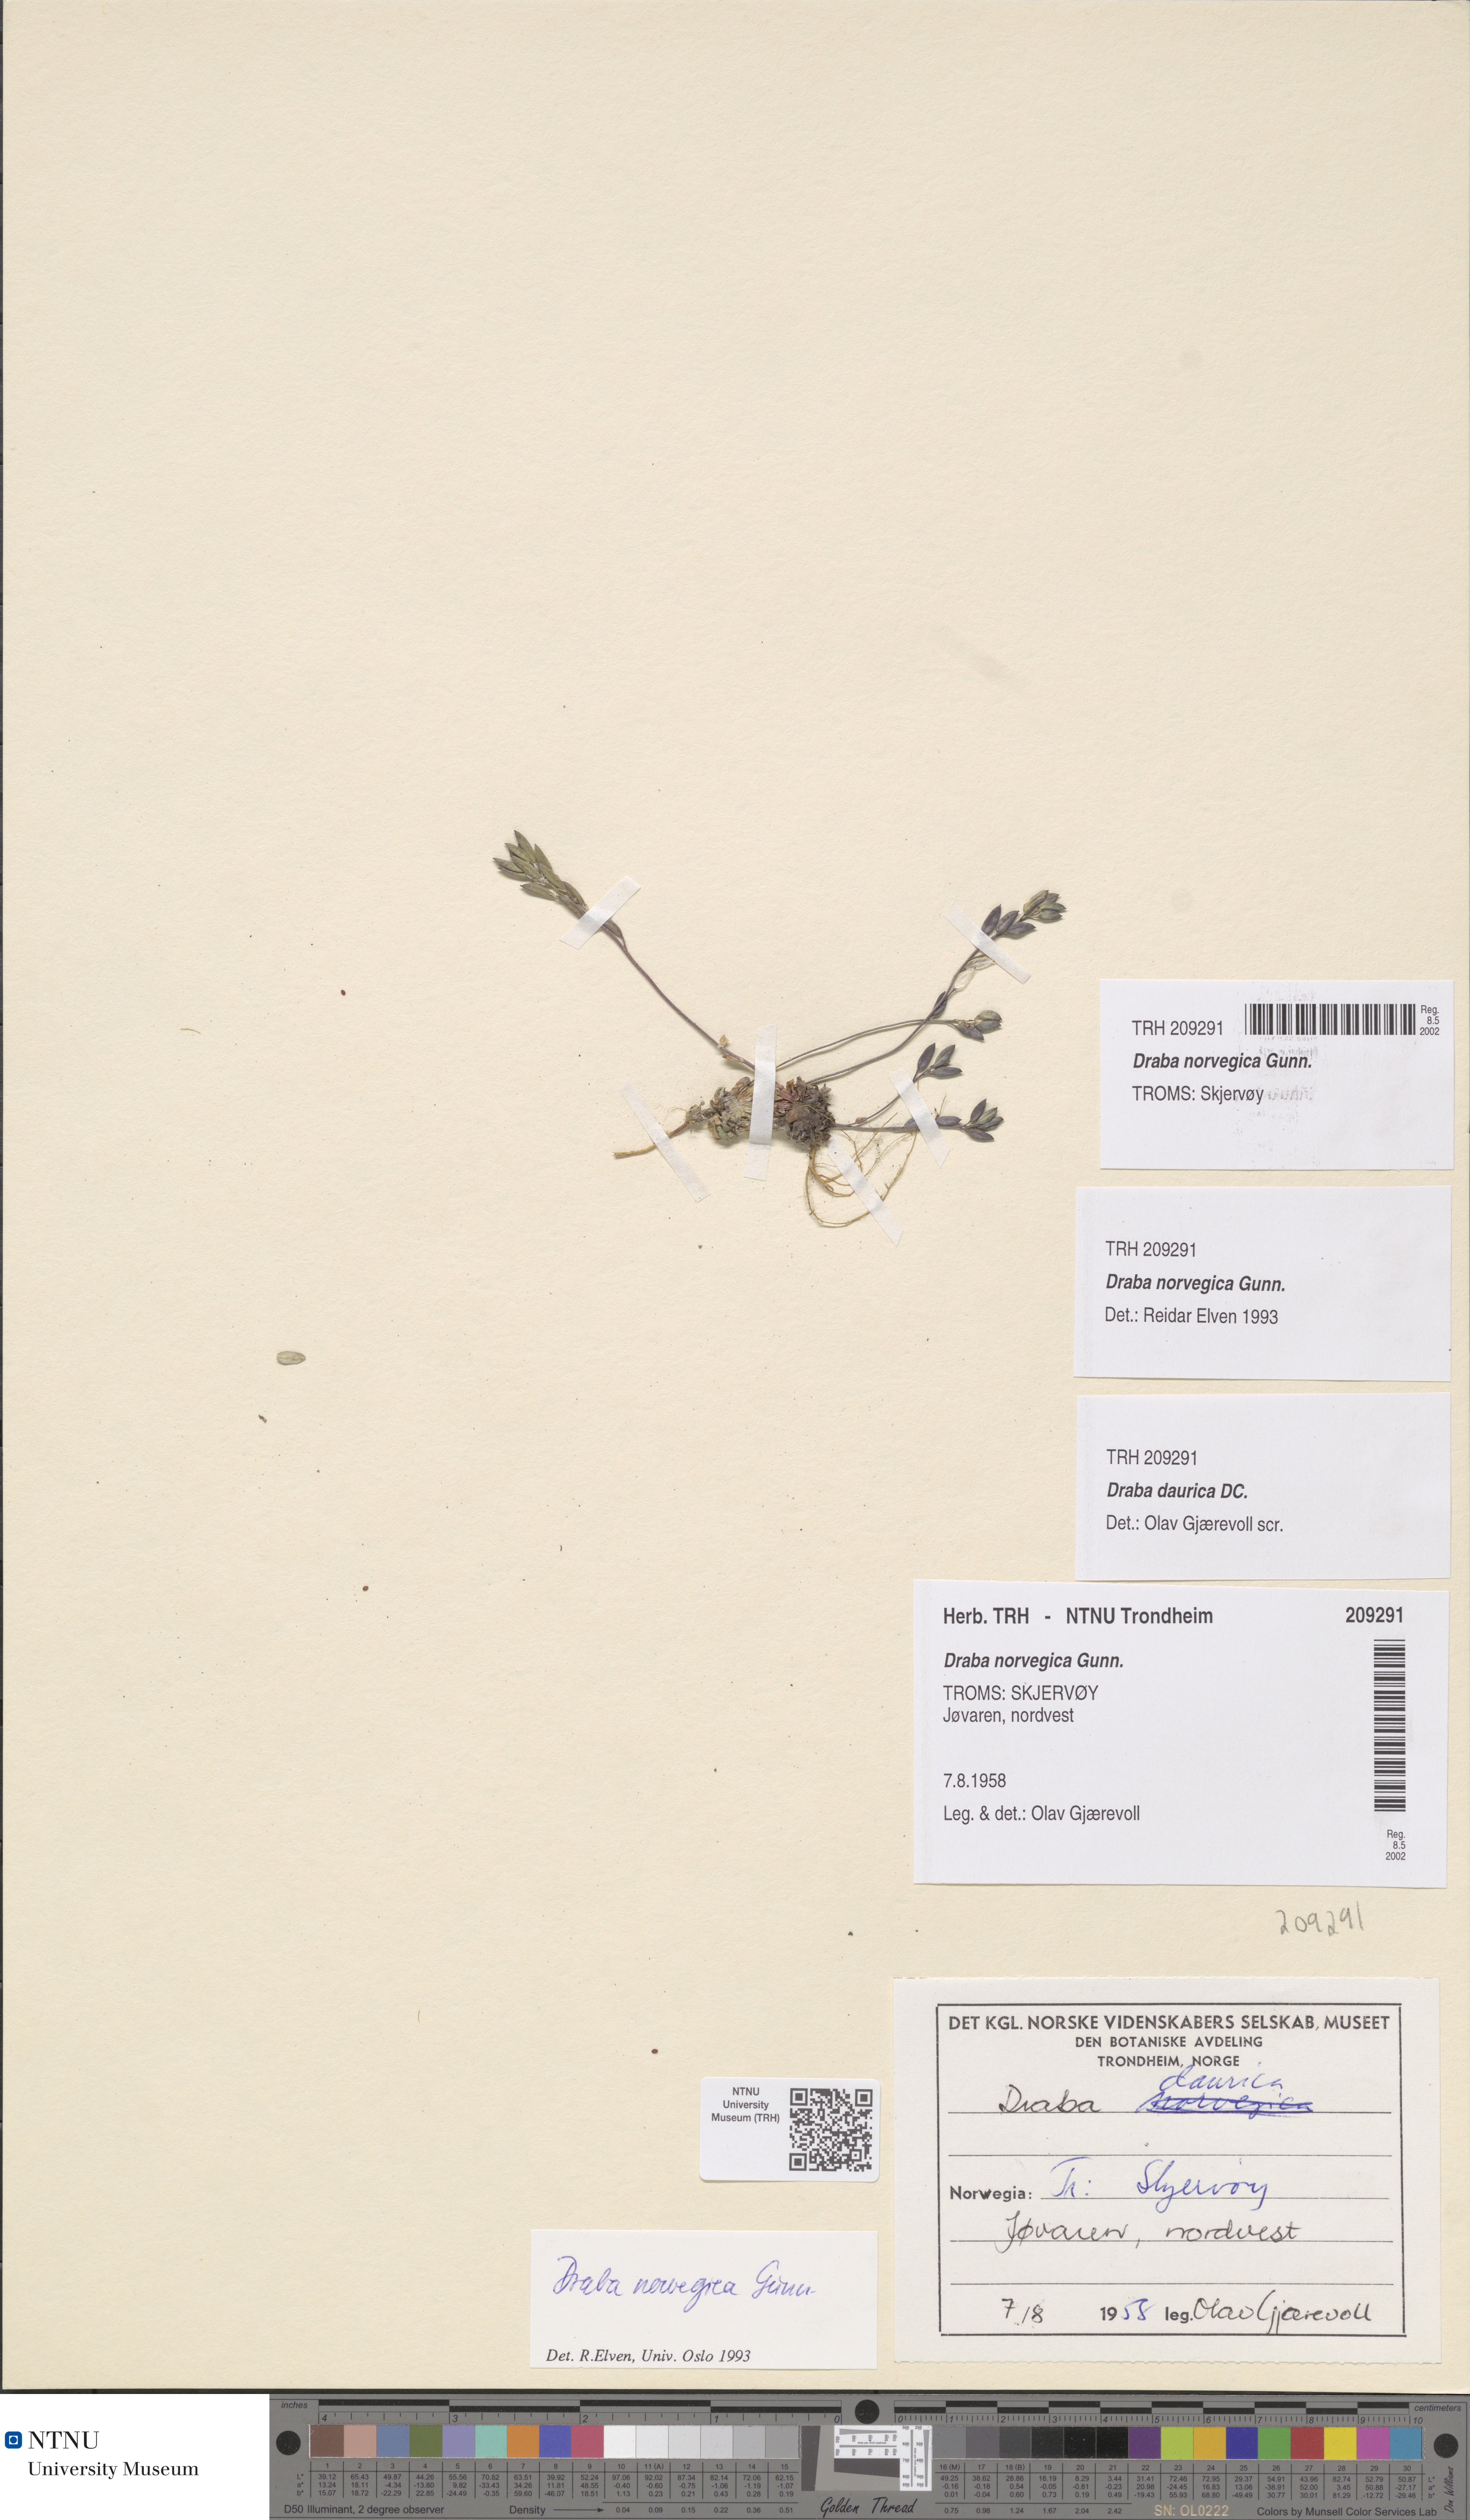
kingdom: Plantae
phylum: Tracheophyta
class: Magnoliopsida
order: Brassicales
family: Brassicaceae
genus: Draba
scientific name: Draba norvegica
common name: Rock whitlowgrass
